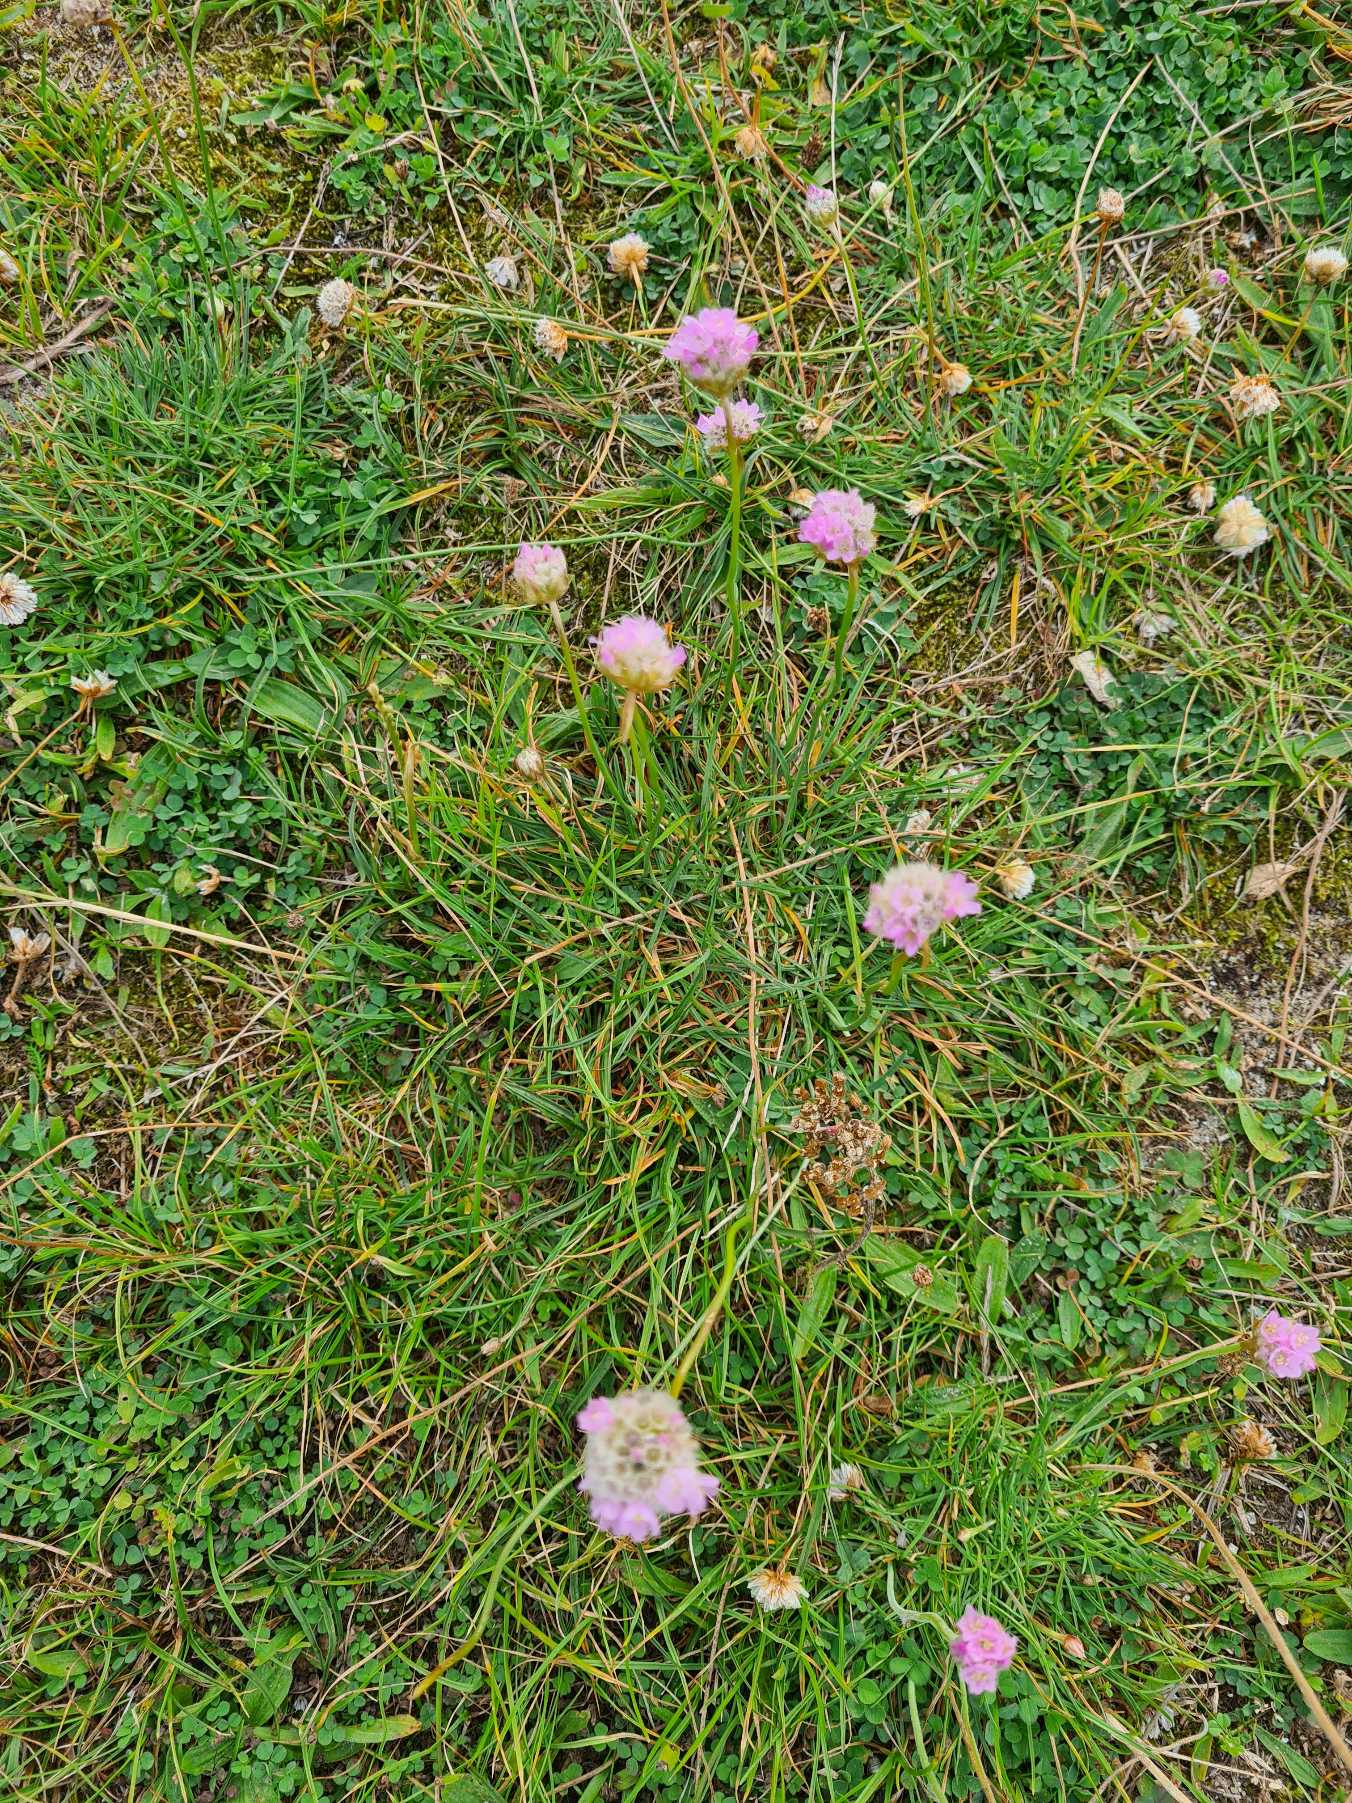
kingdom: Plantae
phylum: Tracheophyta
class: Magnoliopsida
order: Caryophyllales
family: Plumbaginaceae
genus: Armeria
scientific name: Armeria maritima
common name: Engelskgræs
